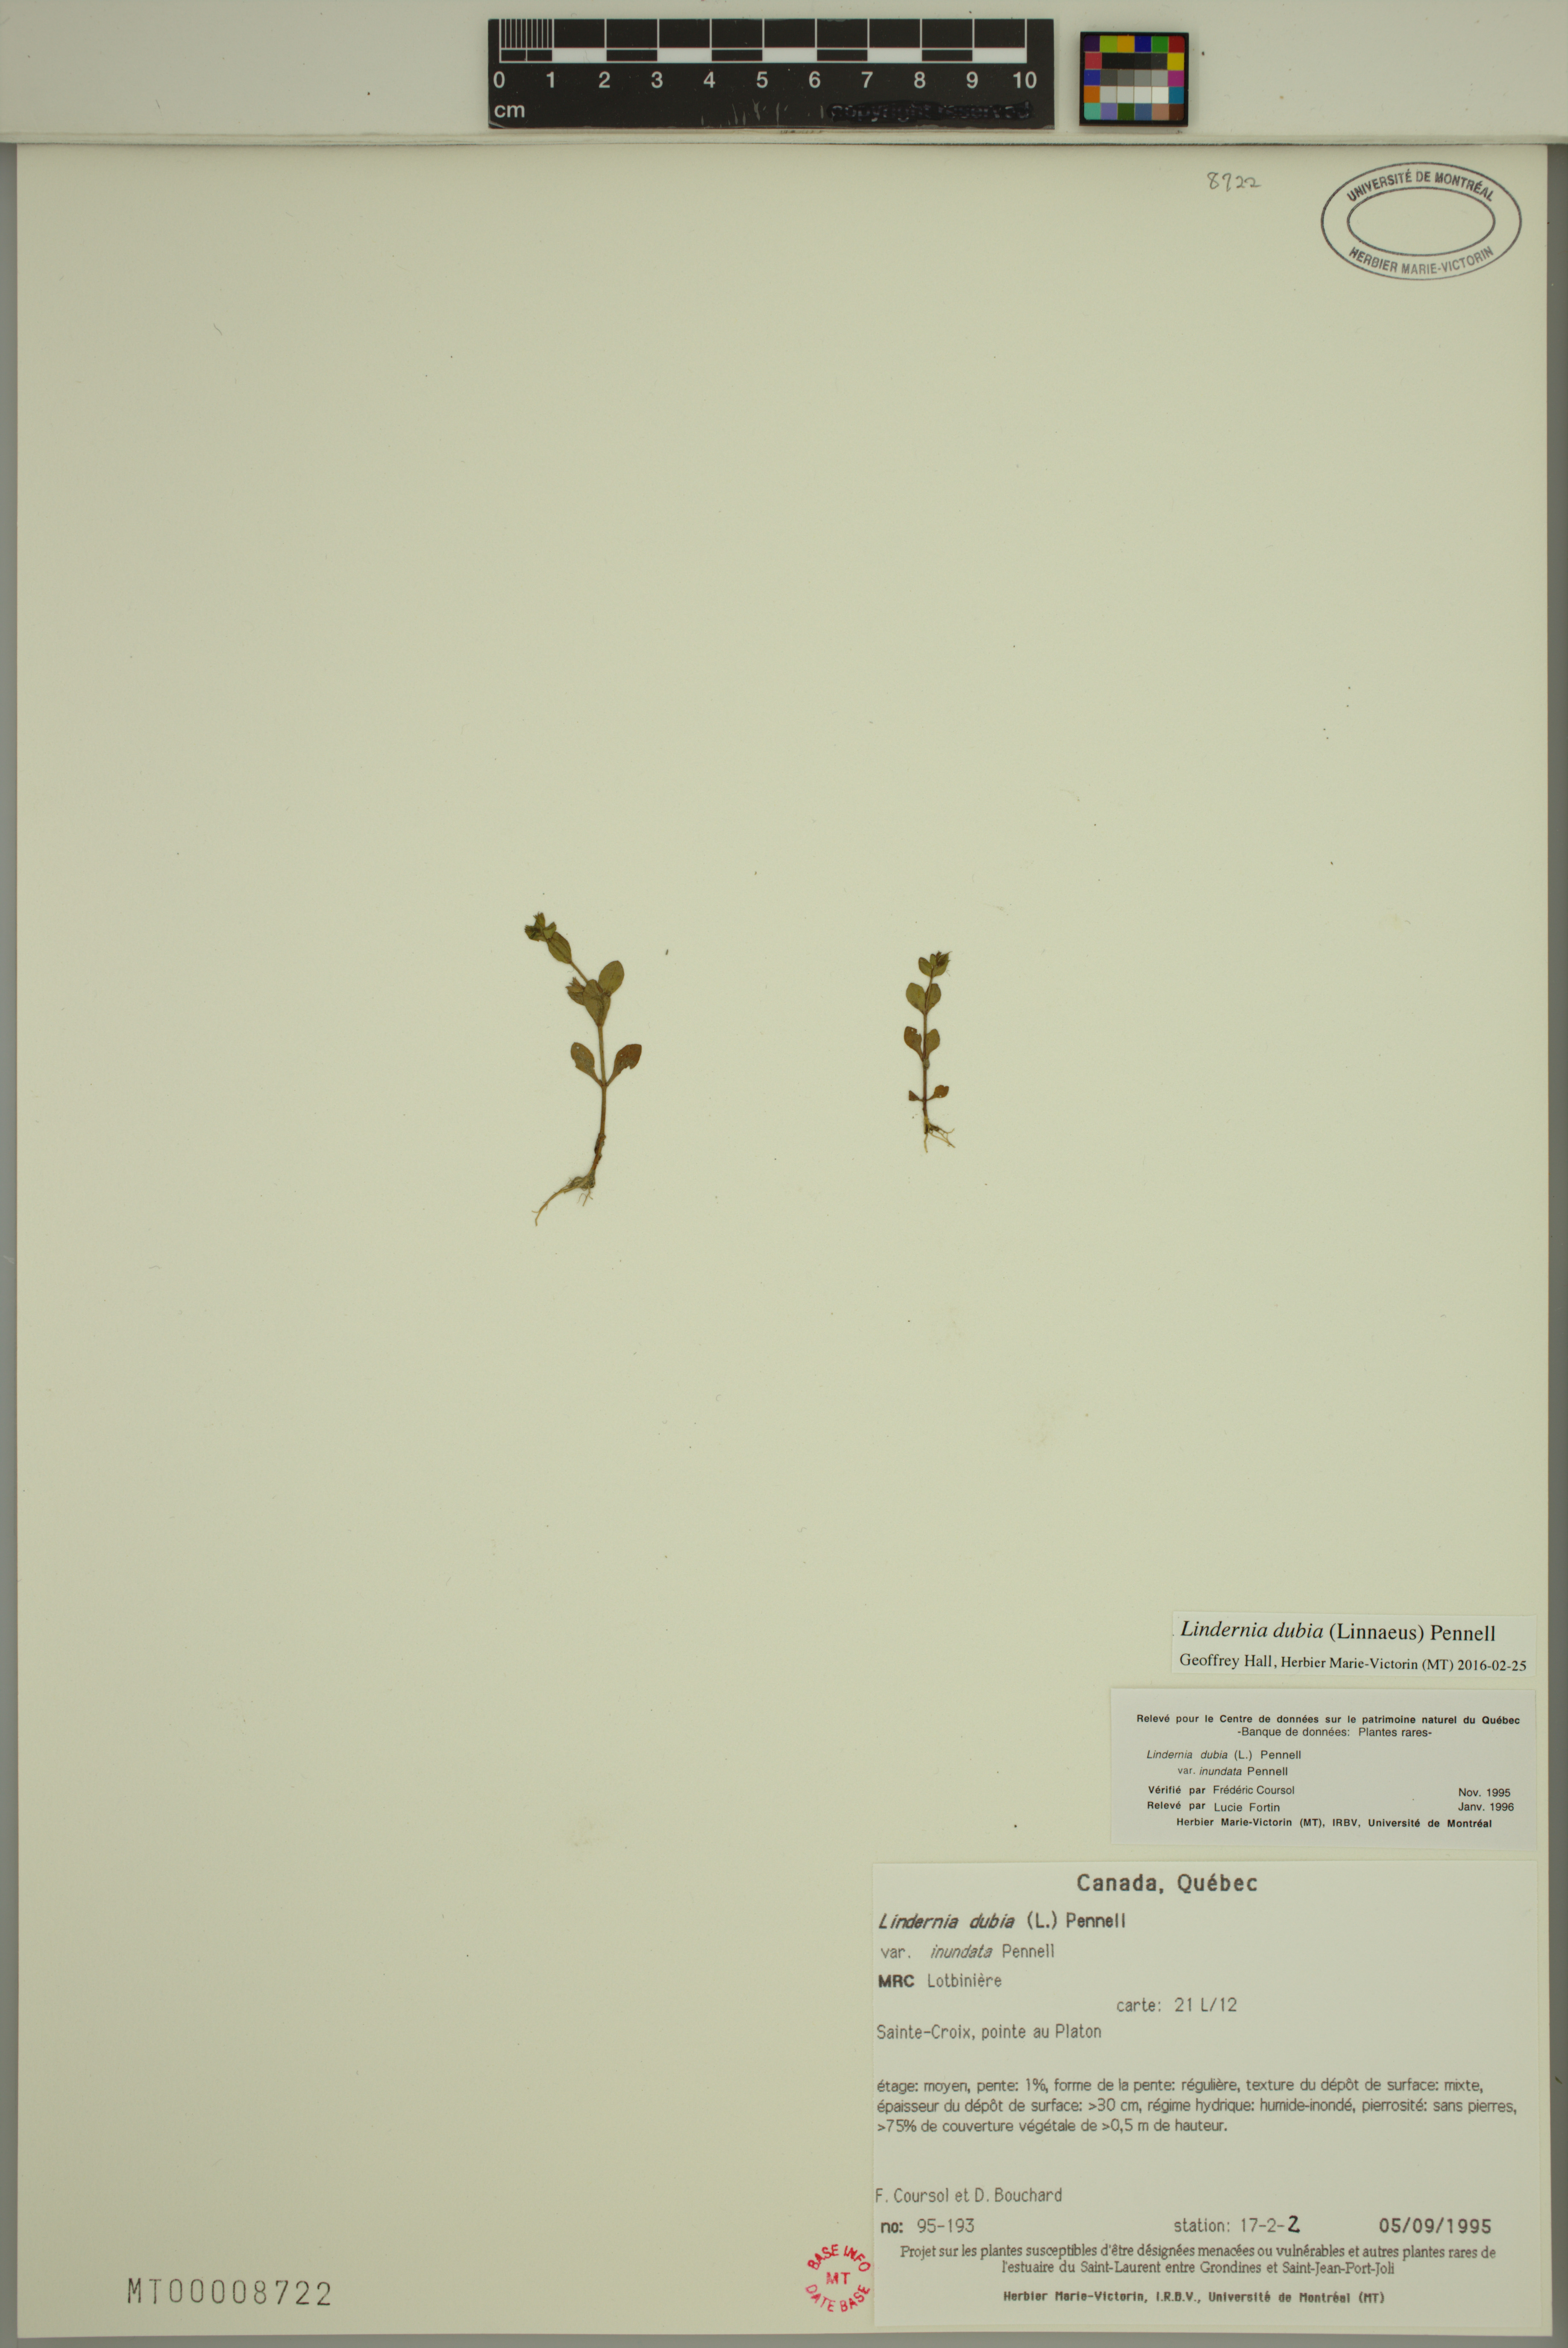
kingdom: Plantae
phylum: Tracheophyta
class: Magnoliopsida
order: Lamiales
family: Linderniaceae
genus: Lindernia
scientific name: Lindernia dubia
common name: Annual false pimpernel
